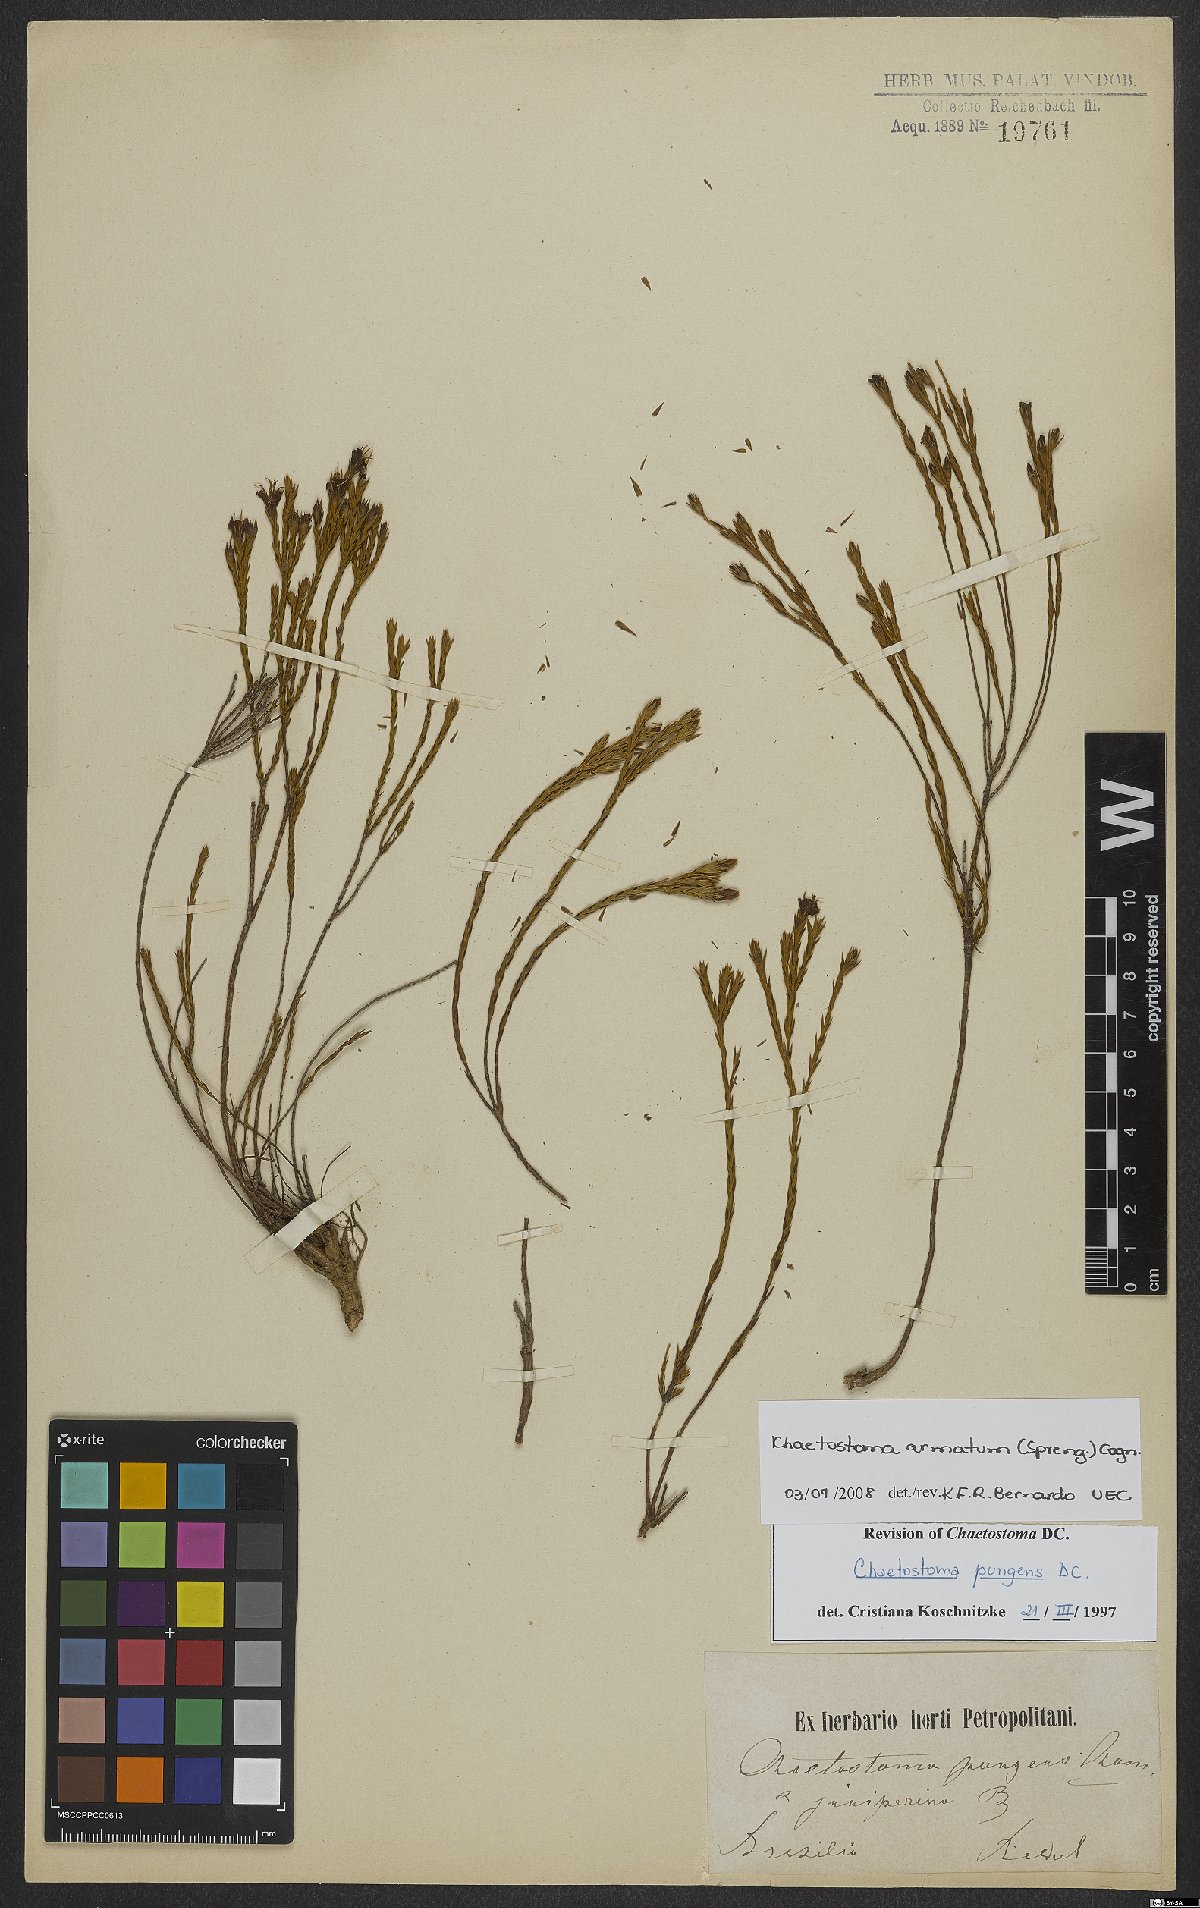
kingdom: Plantae
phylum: Tracheophyta
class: Magnoliopsida
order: Myrtales
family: Melastomataceae
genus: Microlicia
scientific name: Microlicia armata
